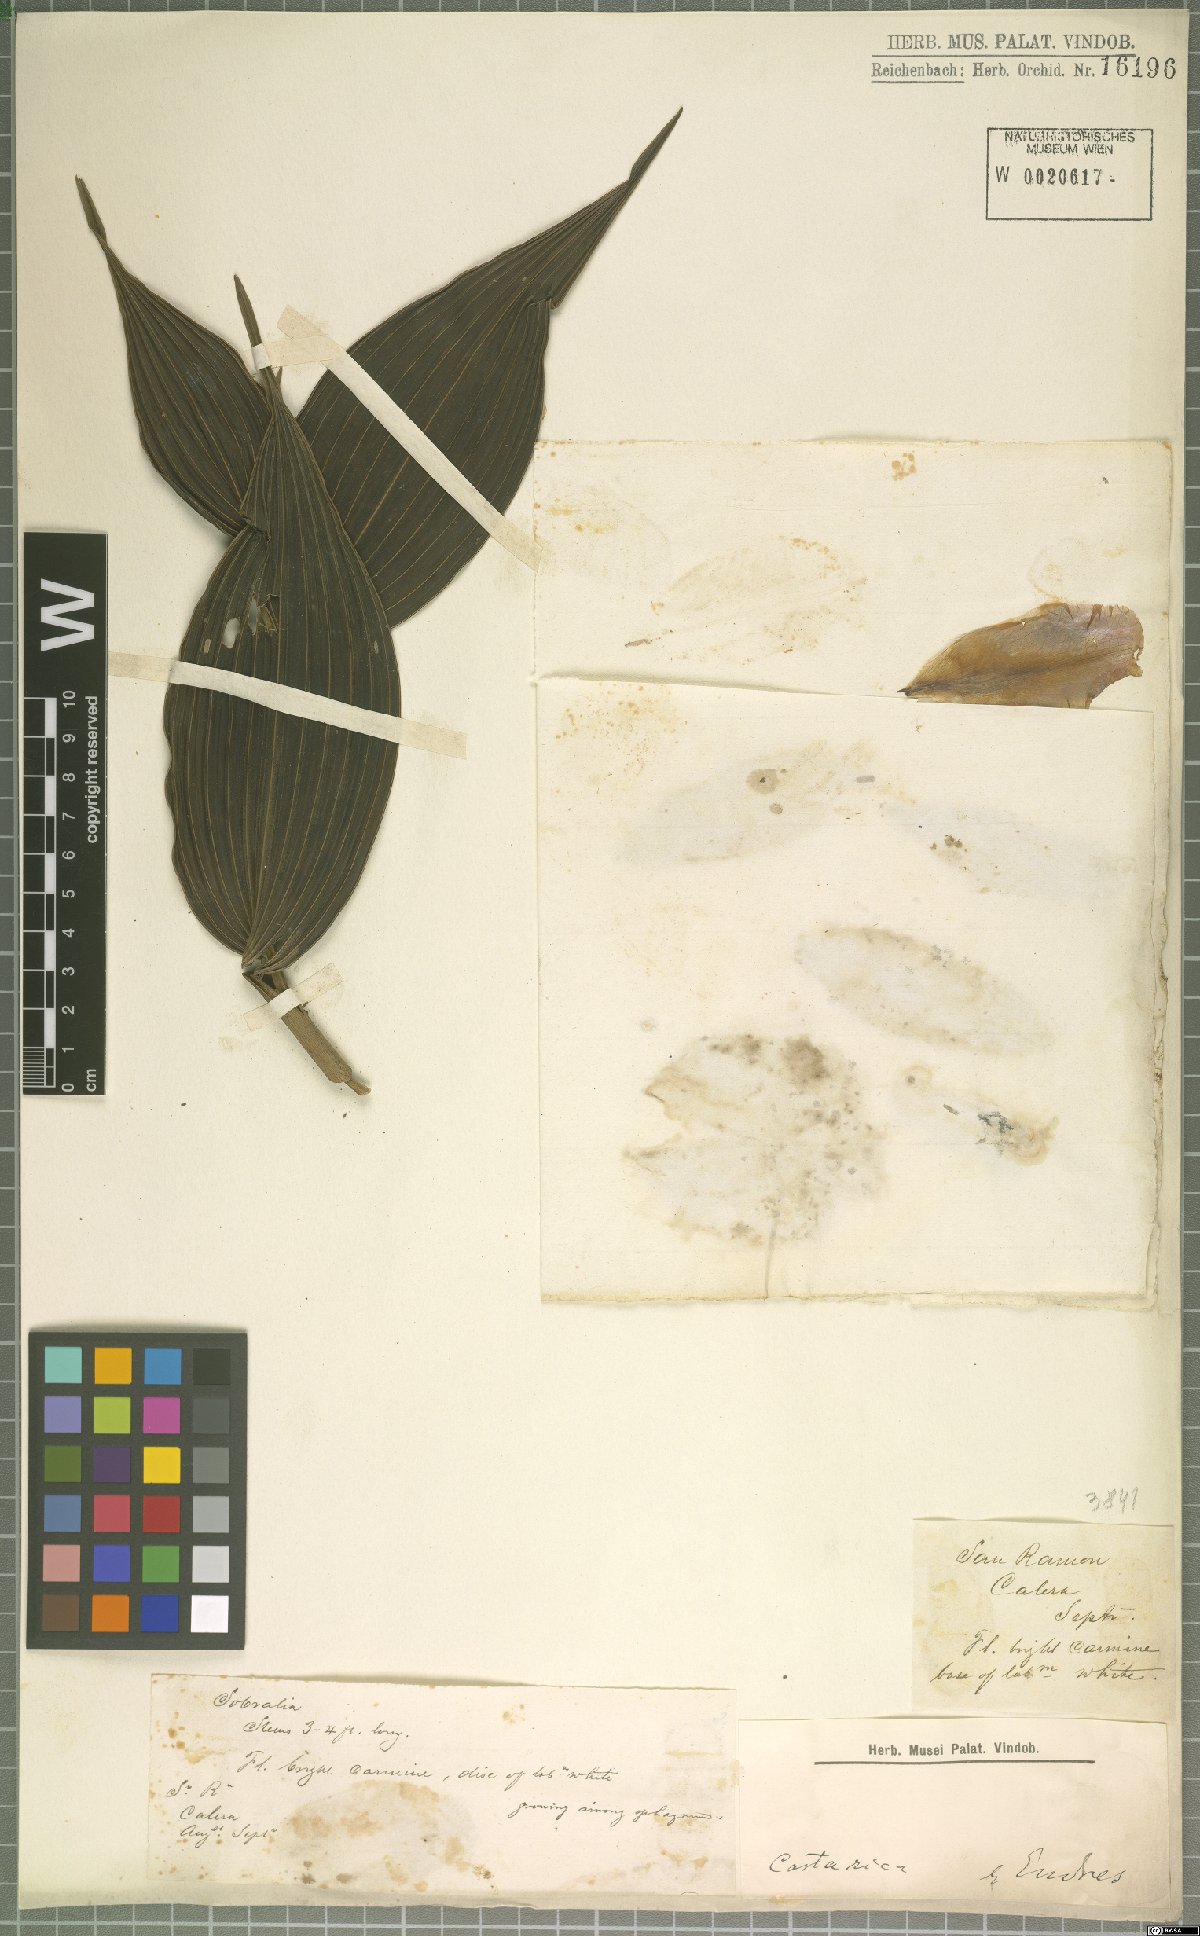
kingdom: Plantae
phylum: Tracheophyta
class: Liliopsida
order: Asparagales
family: Orchidaceae
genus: Sobralia
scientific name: Sobralia
